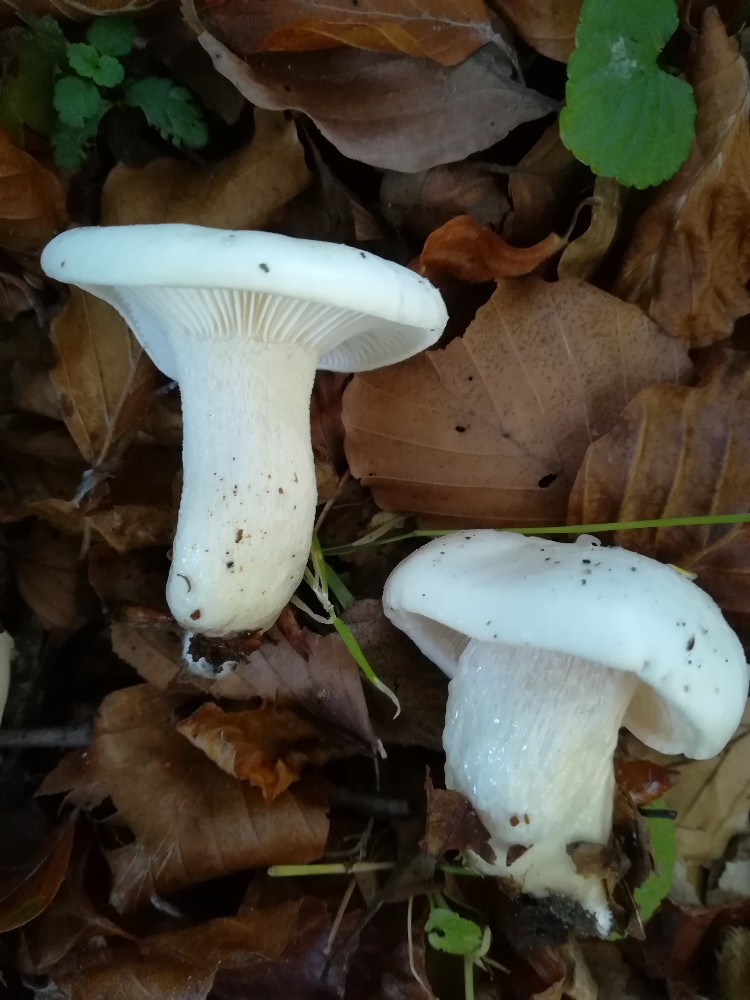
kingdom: Fungi
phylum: Basidiomycota
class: Agaricomycetes
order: Agaricales
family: Hygrophoraceae
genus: Hygrophorus
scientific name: Hygrophorus eburneus
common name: elfenbens-sneglehat
